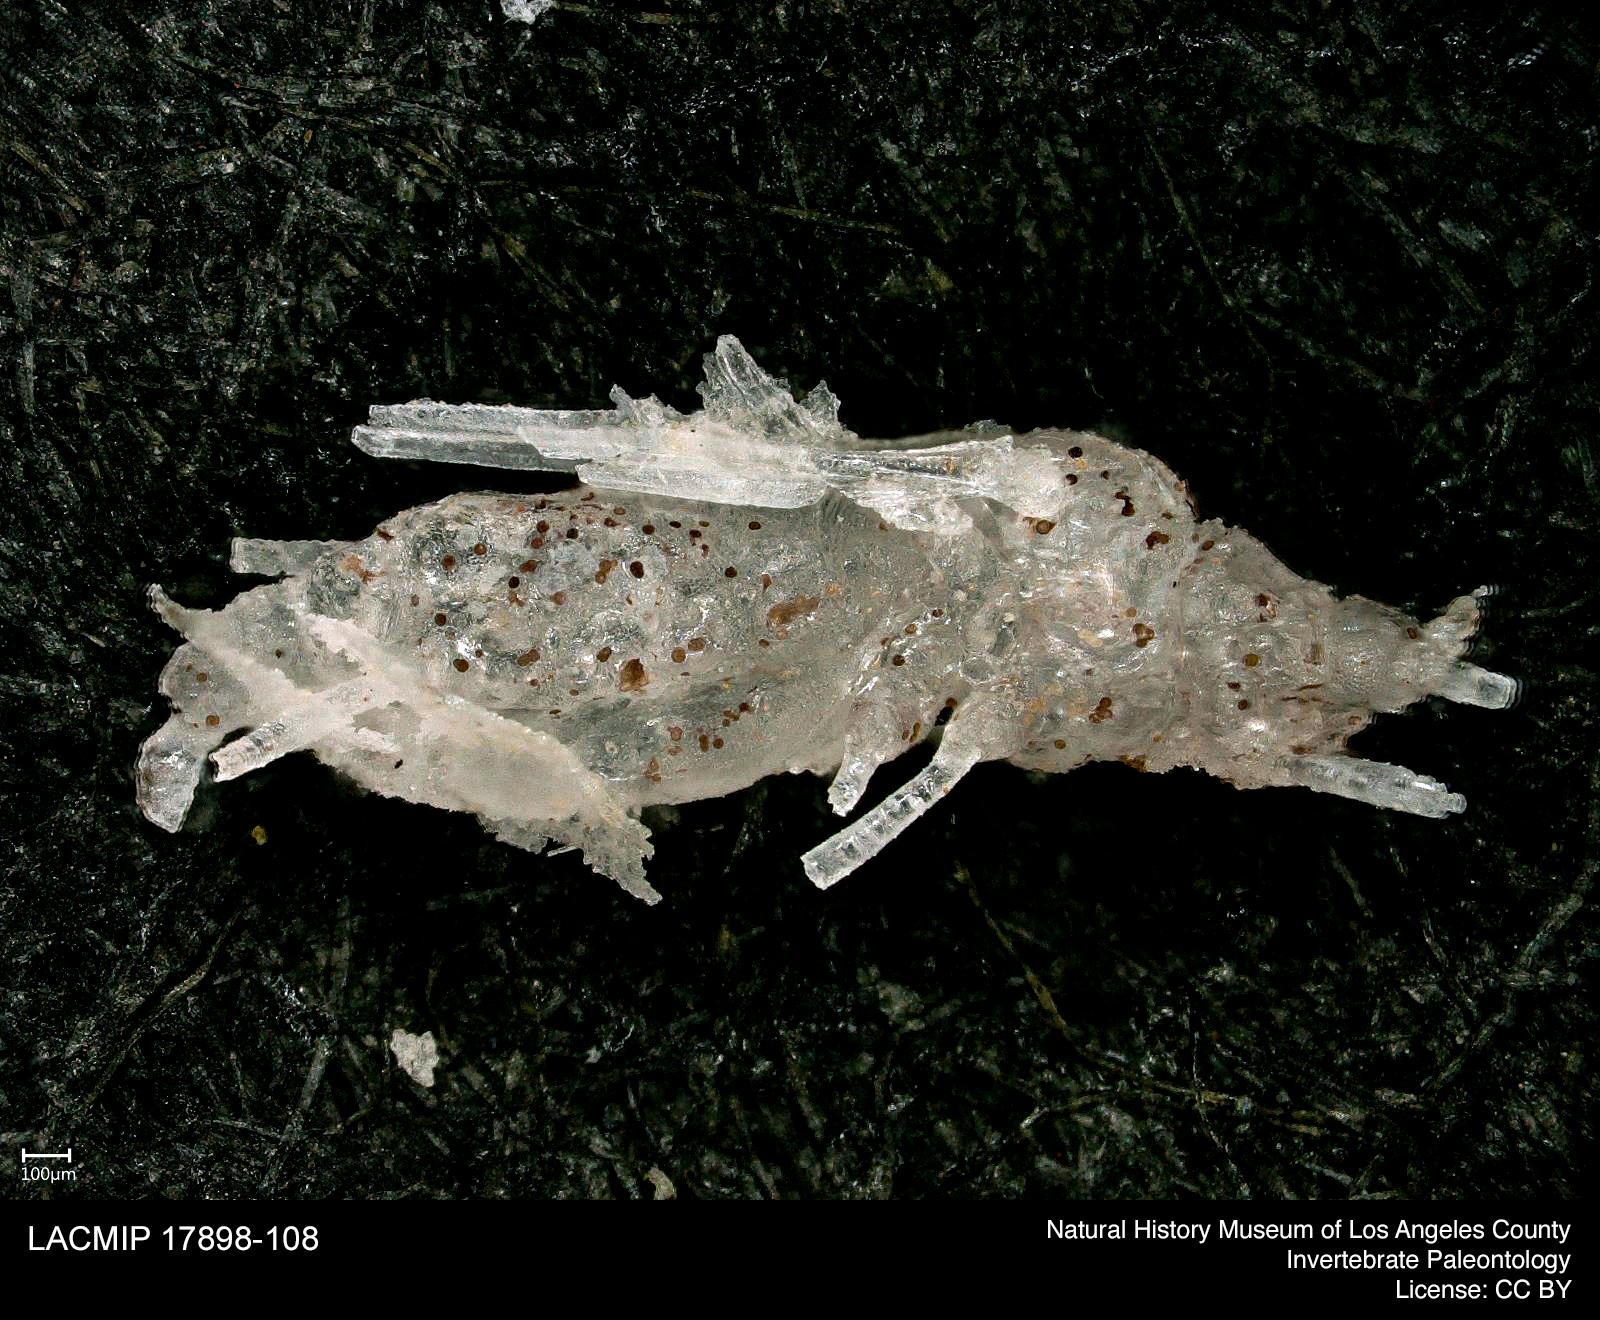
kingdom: Animalia
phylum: Arthropoda
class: Insecta
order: Hemiptera
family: Aphididae
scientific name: Aphididae
